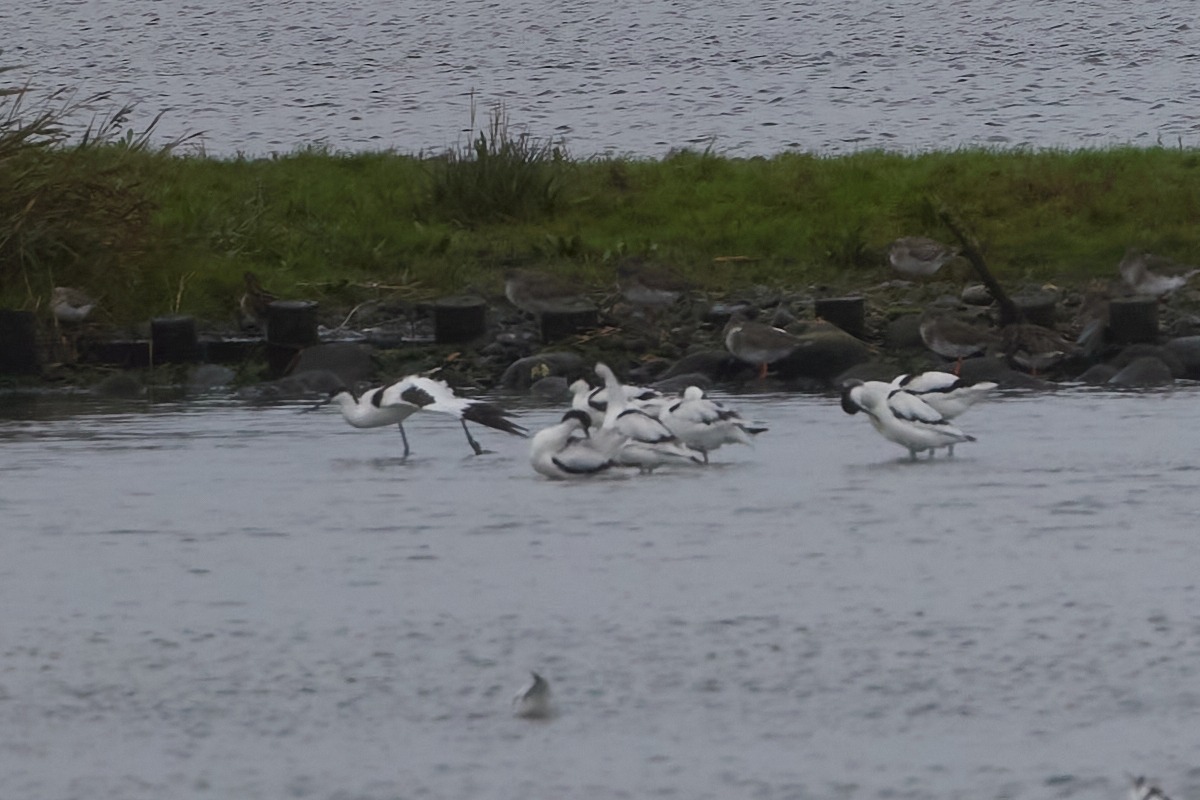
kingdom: Animalia
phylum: Chordata
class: Aves
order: Charadriiformes
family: Recurvirostridae
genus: Recurvirostra
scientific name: Recurvirostra avosetta
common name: Klyde
